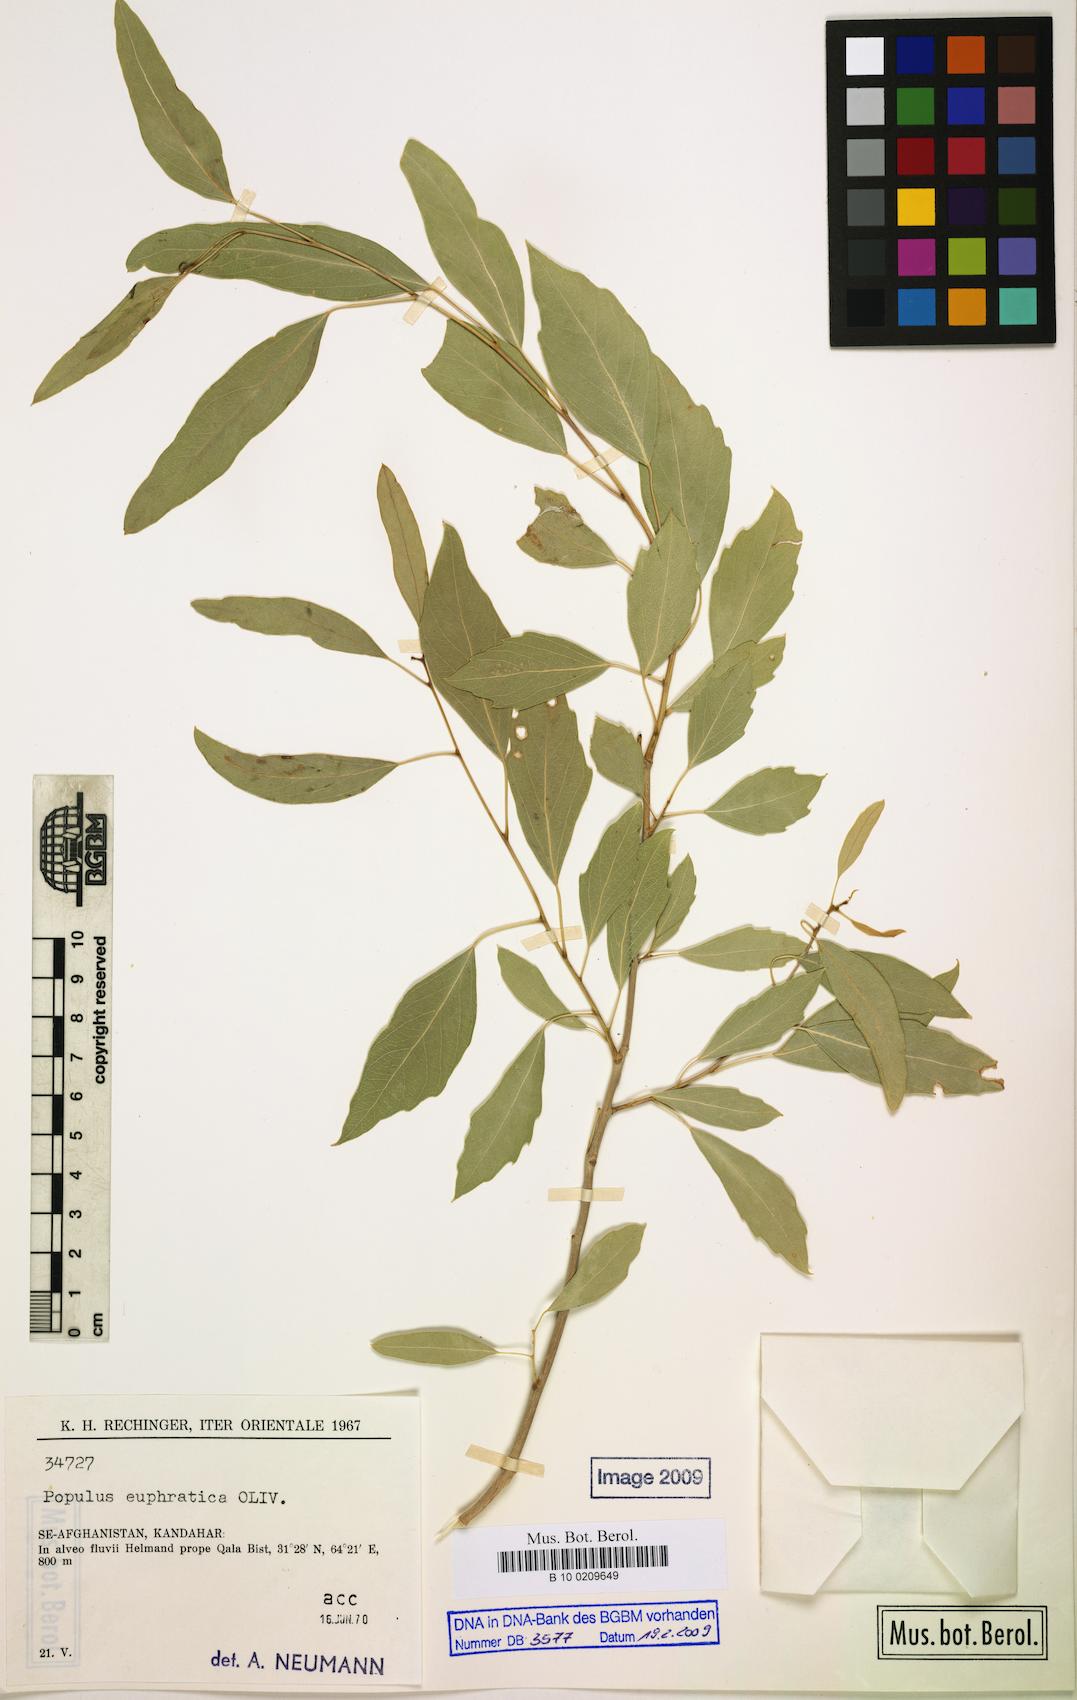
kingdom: Plantae
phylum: Tracheophyta
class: Magnoliopsida
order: Malpighiales
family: Salicaceae
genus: Populus
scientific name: Populus euphratica
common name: Euphrates poplar
